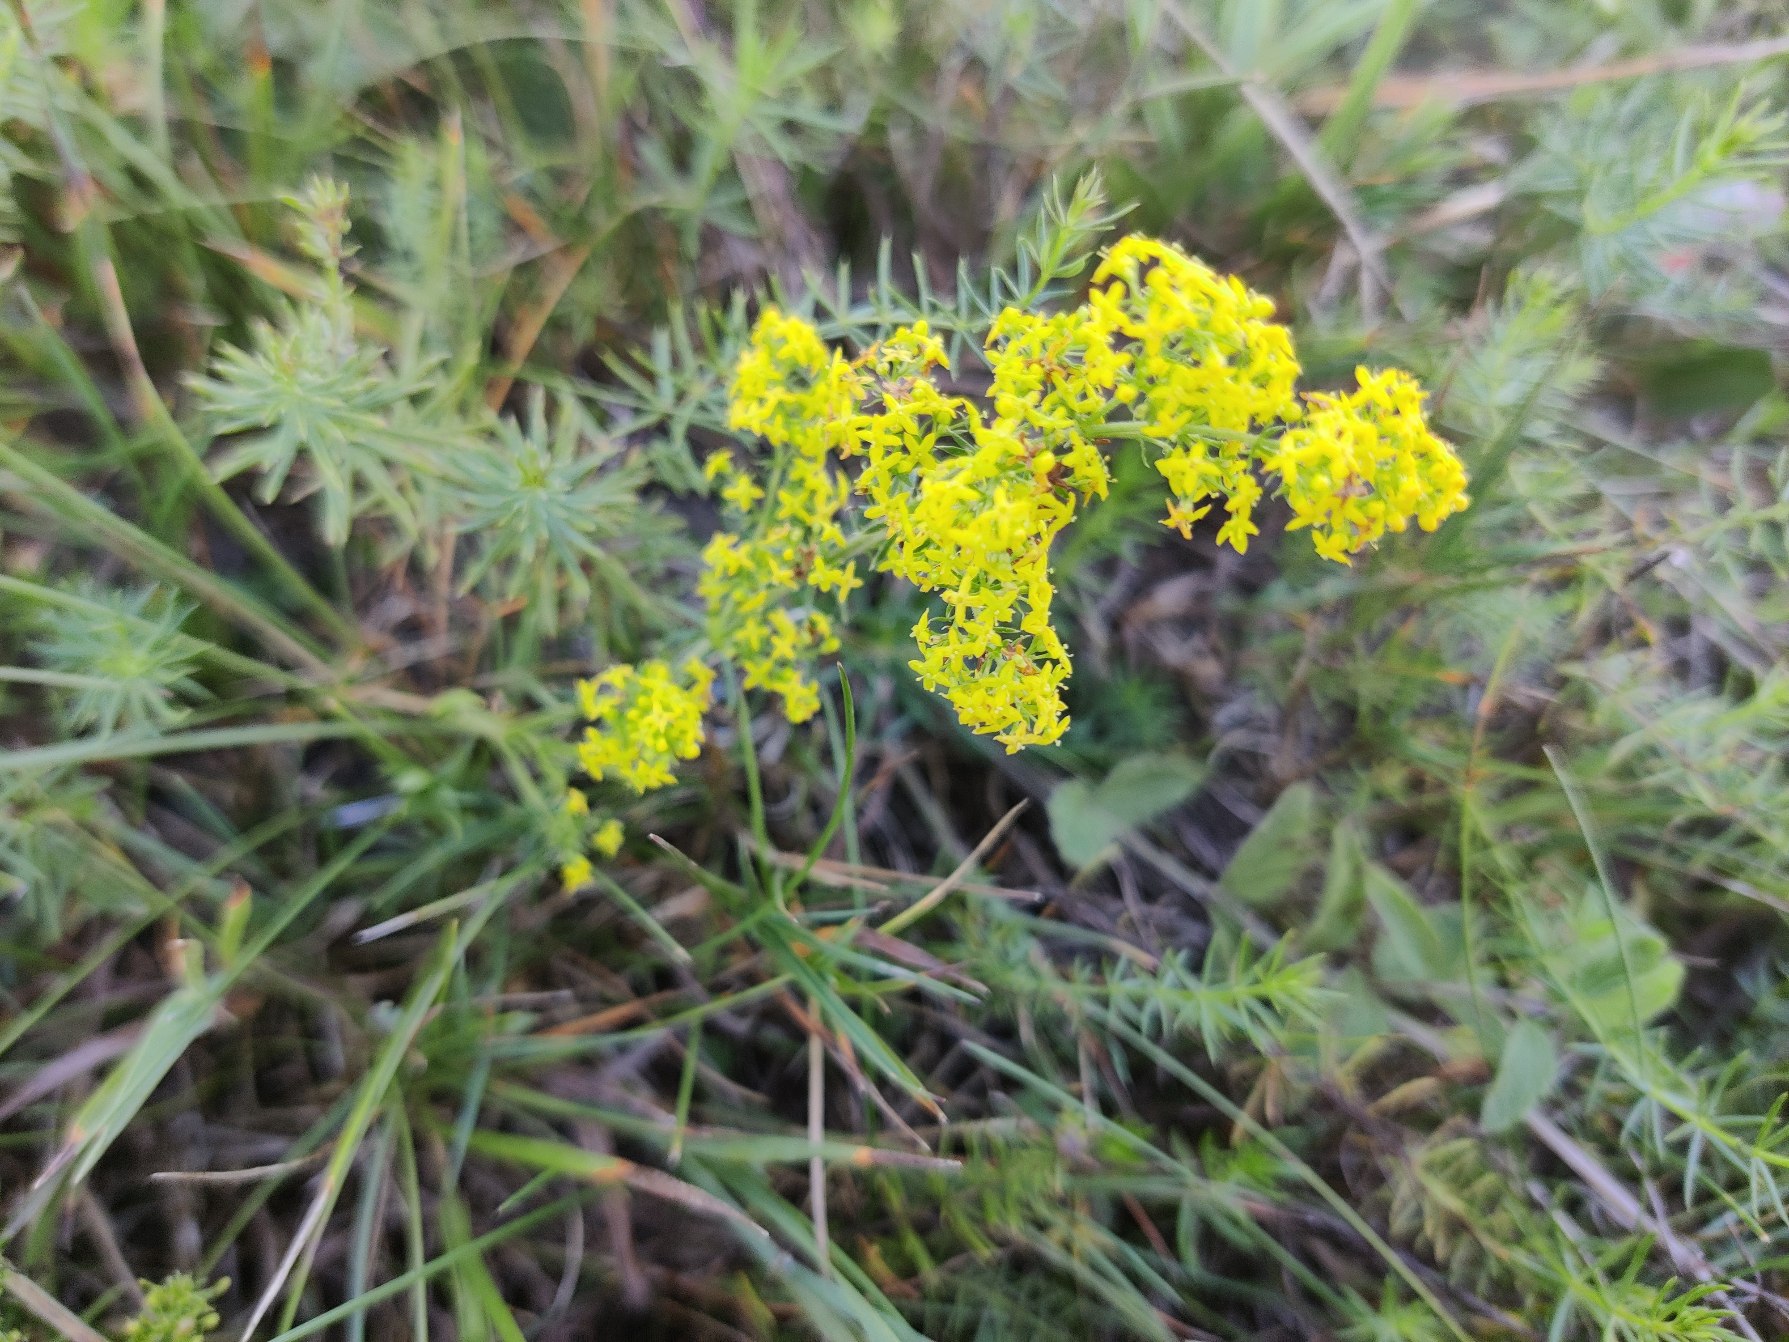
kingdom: Plantae
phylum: Tracheophyta
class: Magnoliopsida
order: Gentianales
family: Rubiaceae
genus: Galium
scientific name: Galium verum
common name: Gul snerre
